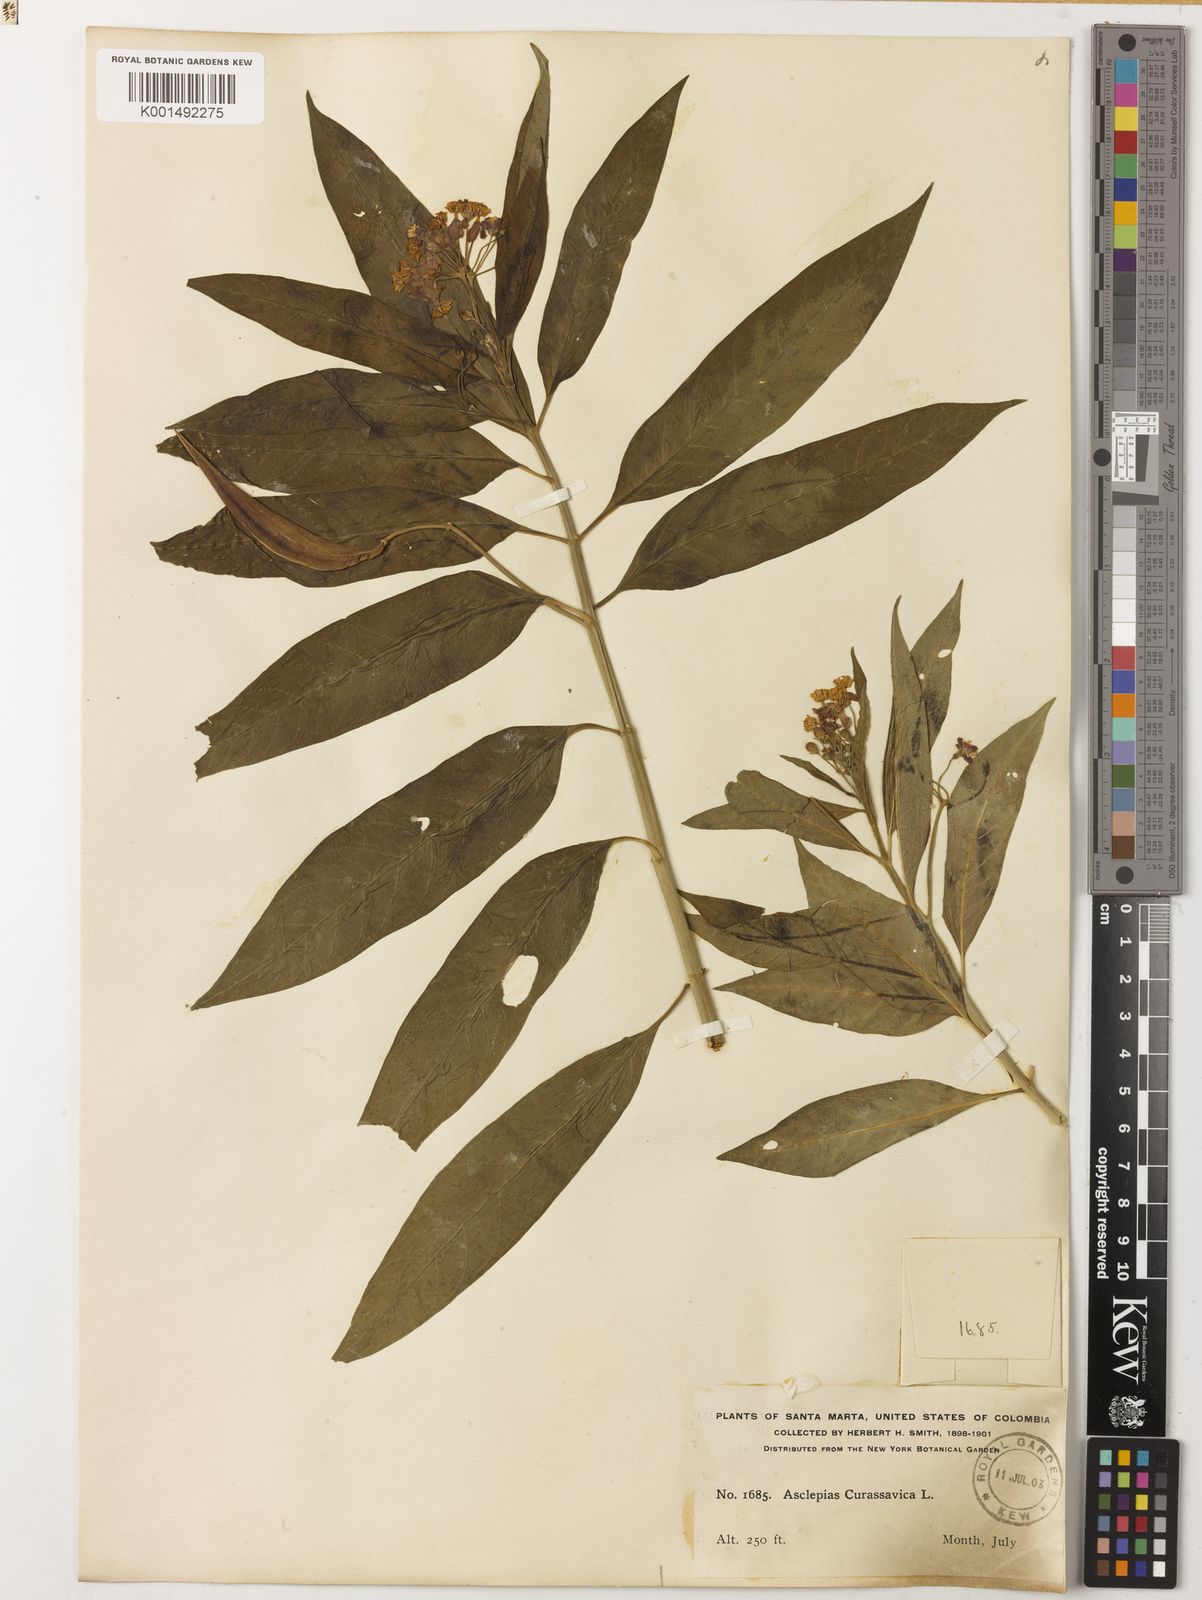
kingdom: Plantae
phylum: Tracheophyta
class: Magnoliopsida
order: Gentianales
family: Apocynaceae
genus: Asclepias
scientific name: Asclepias curassavica
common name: Bloodflower
